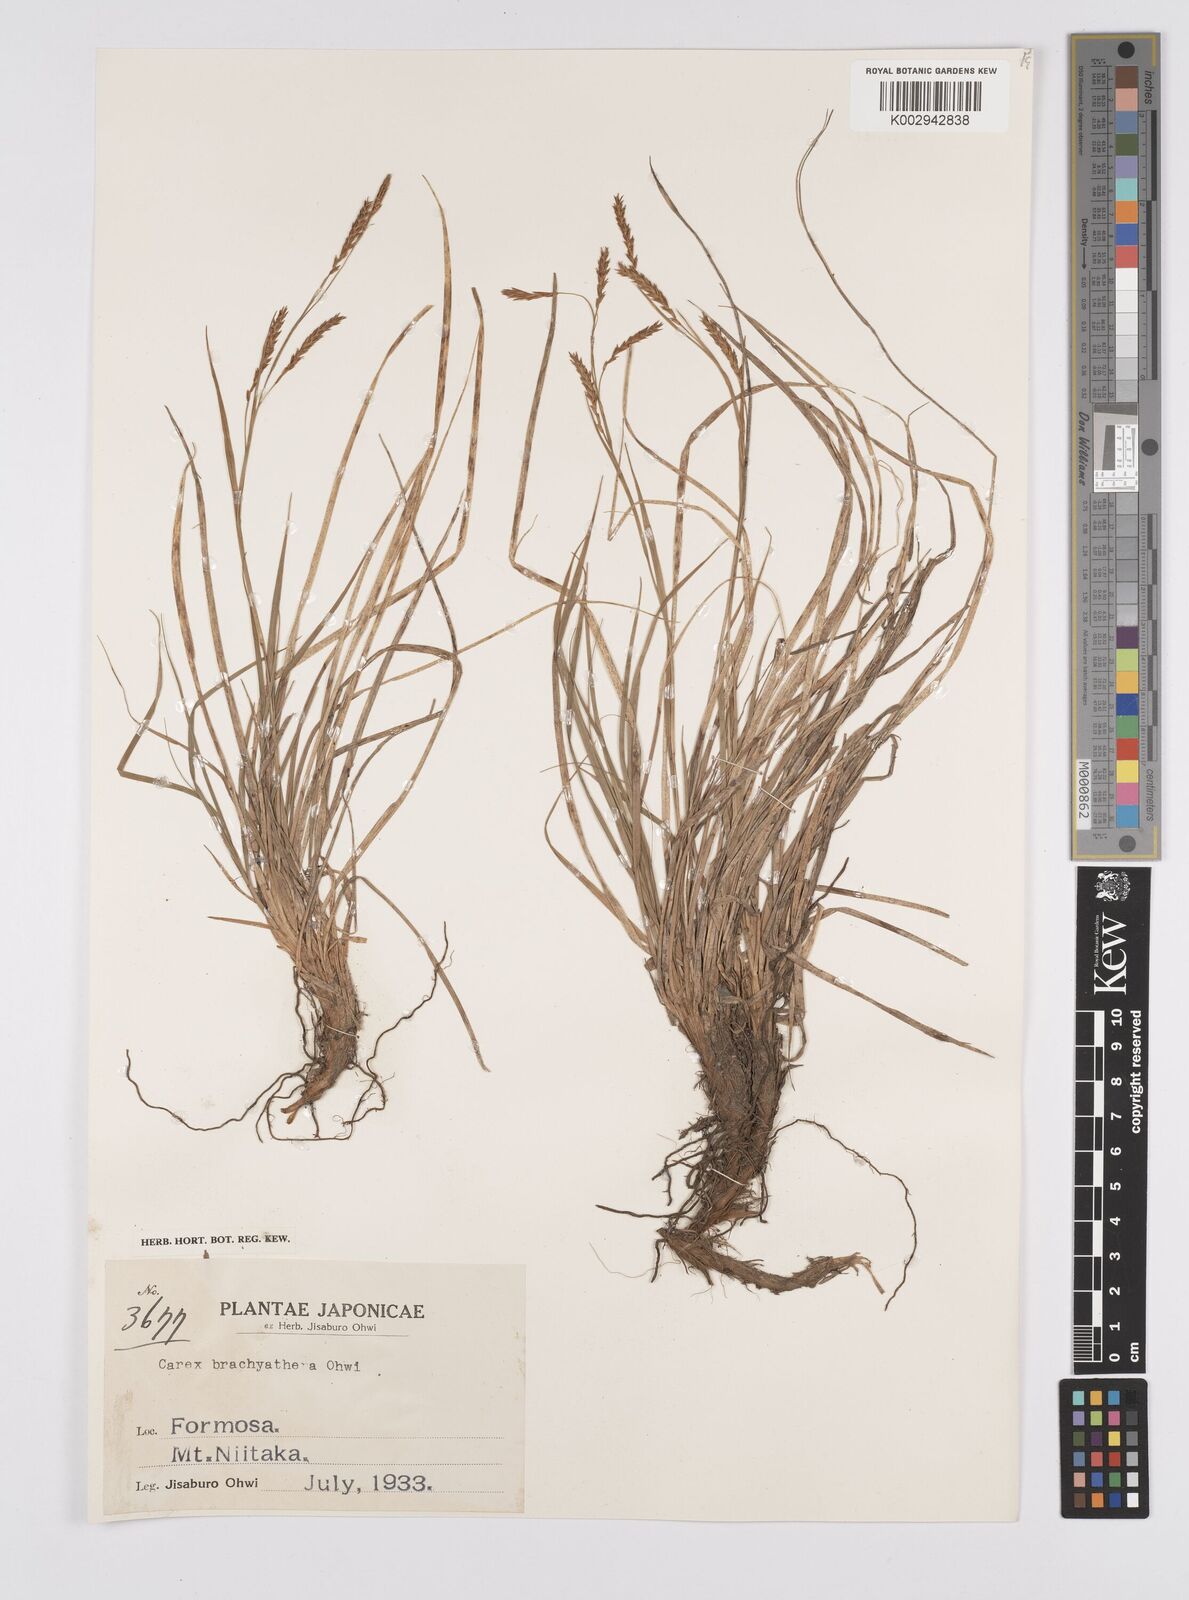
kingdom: Plantae
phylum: Tracheophyta
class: Liliopsida
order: Poales
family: Cyperaceae
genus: Carex
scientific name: Carex brachyanthera
